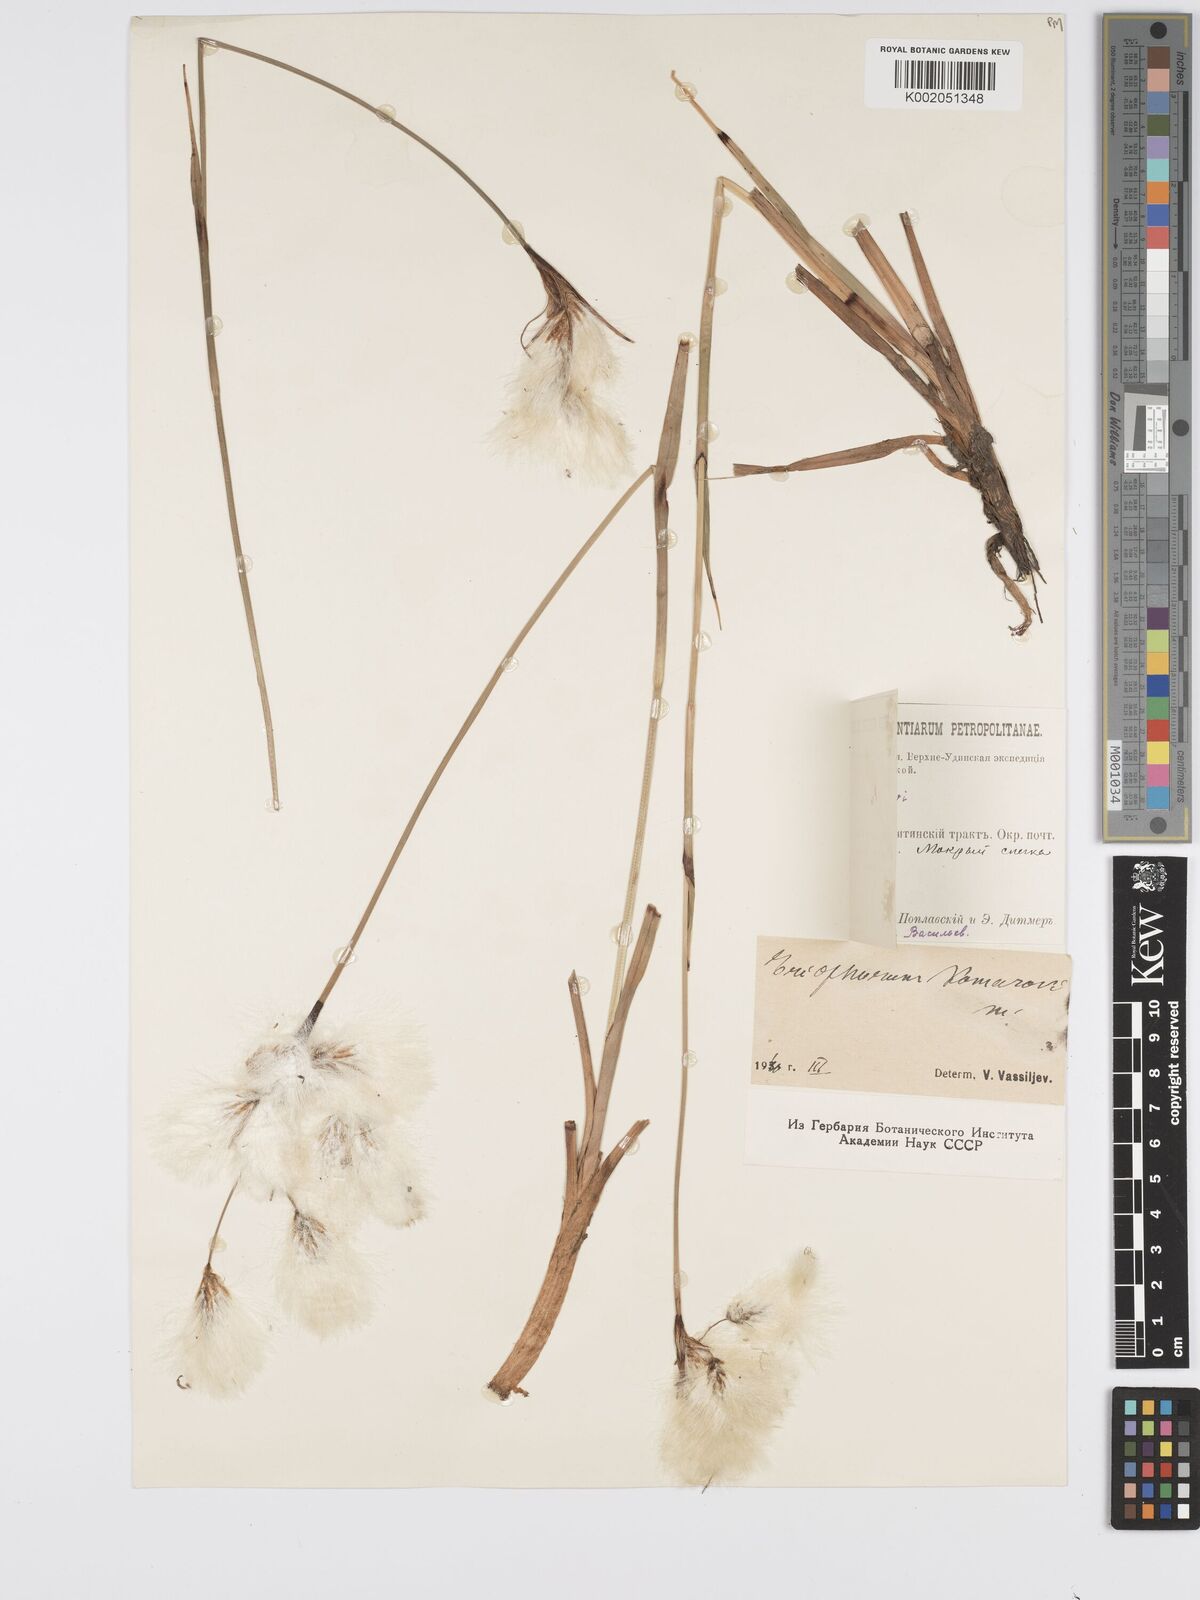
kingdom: Plantae
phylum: Tracheophyta
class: Liliopsida
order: Poales
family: Cyperaceae
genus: Eriophorum
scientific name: Eriophorum angustifolium
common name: Common cottongrass
